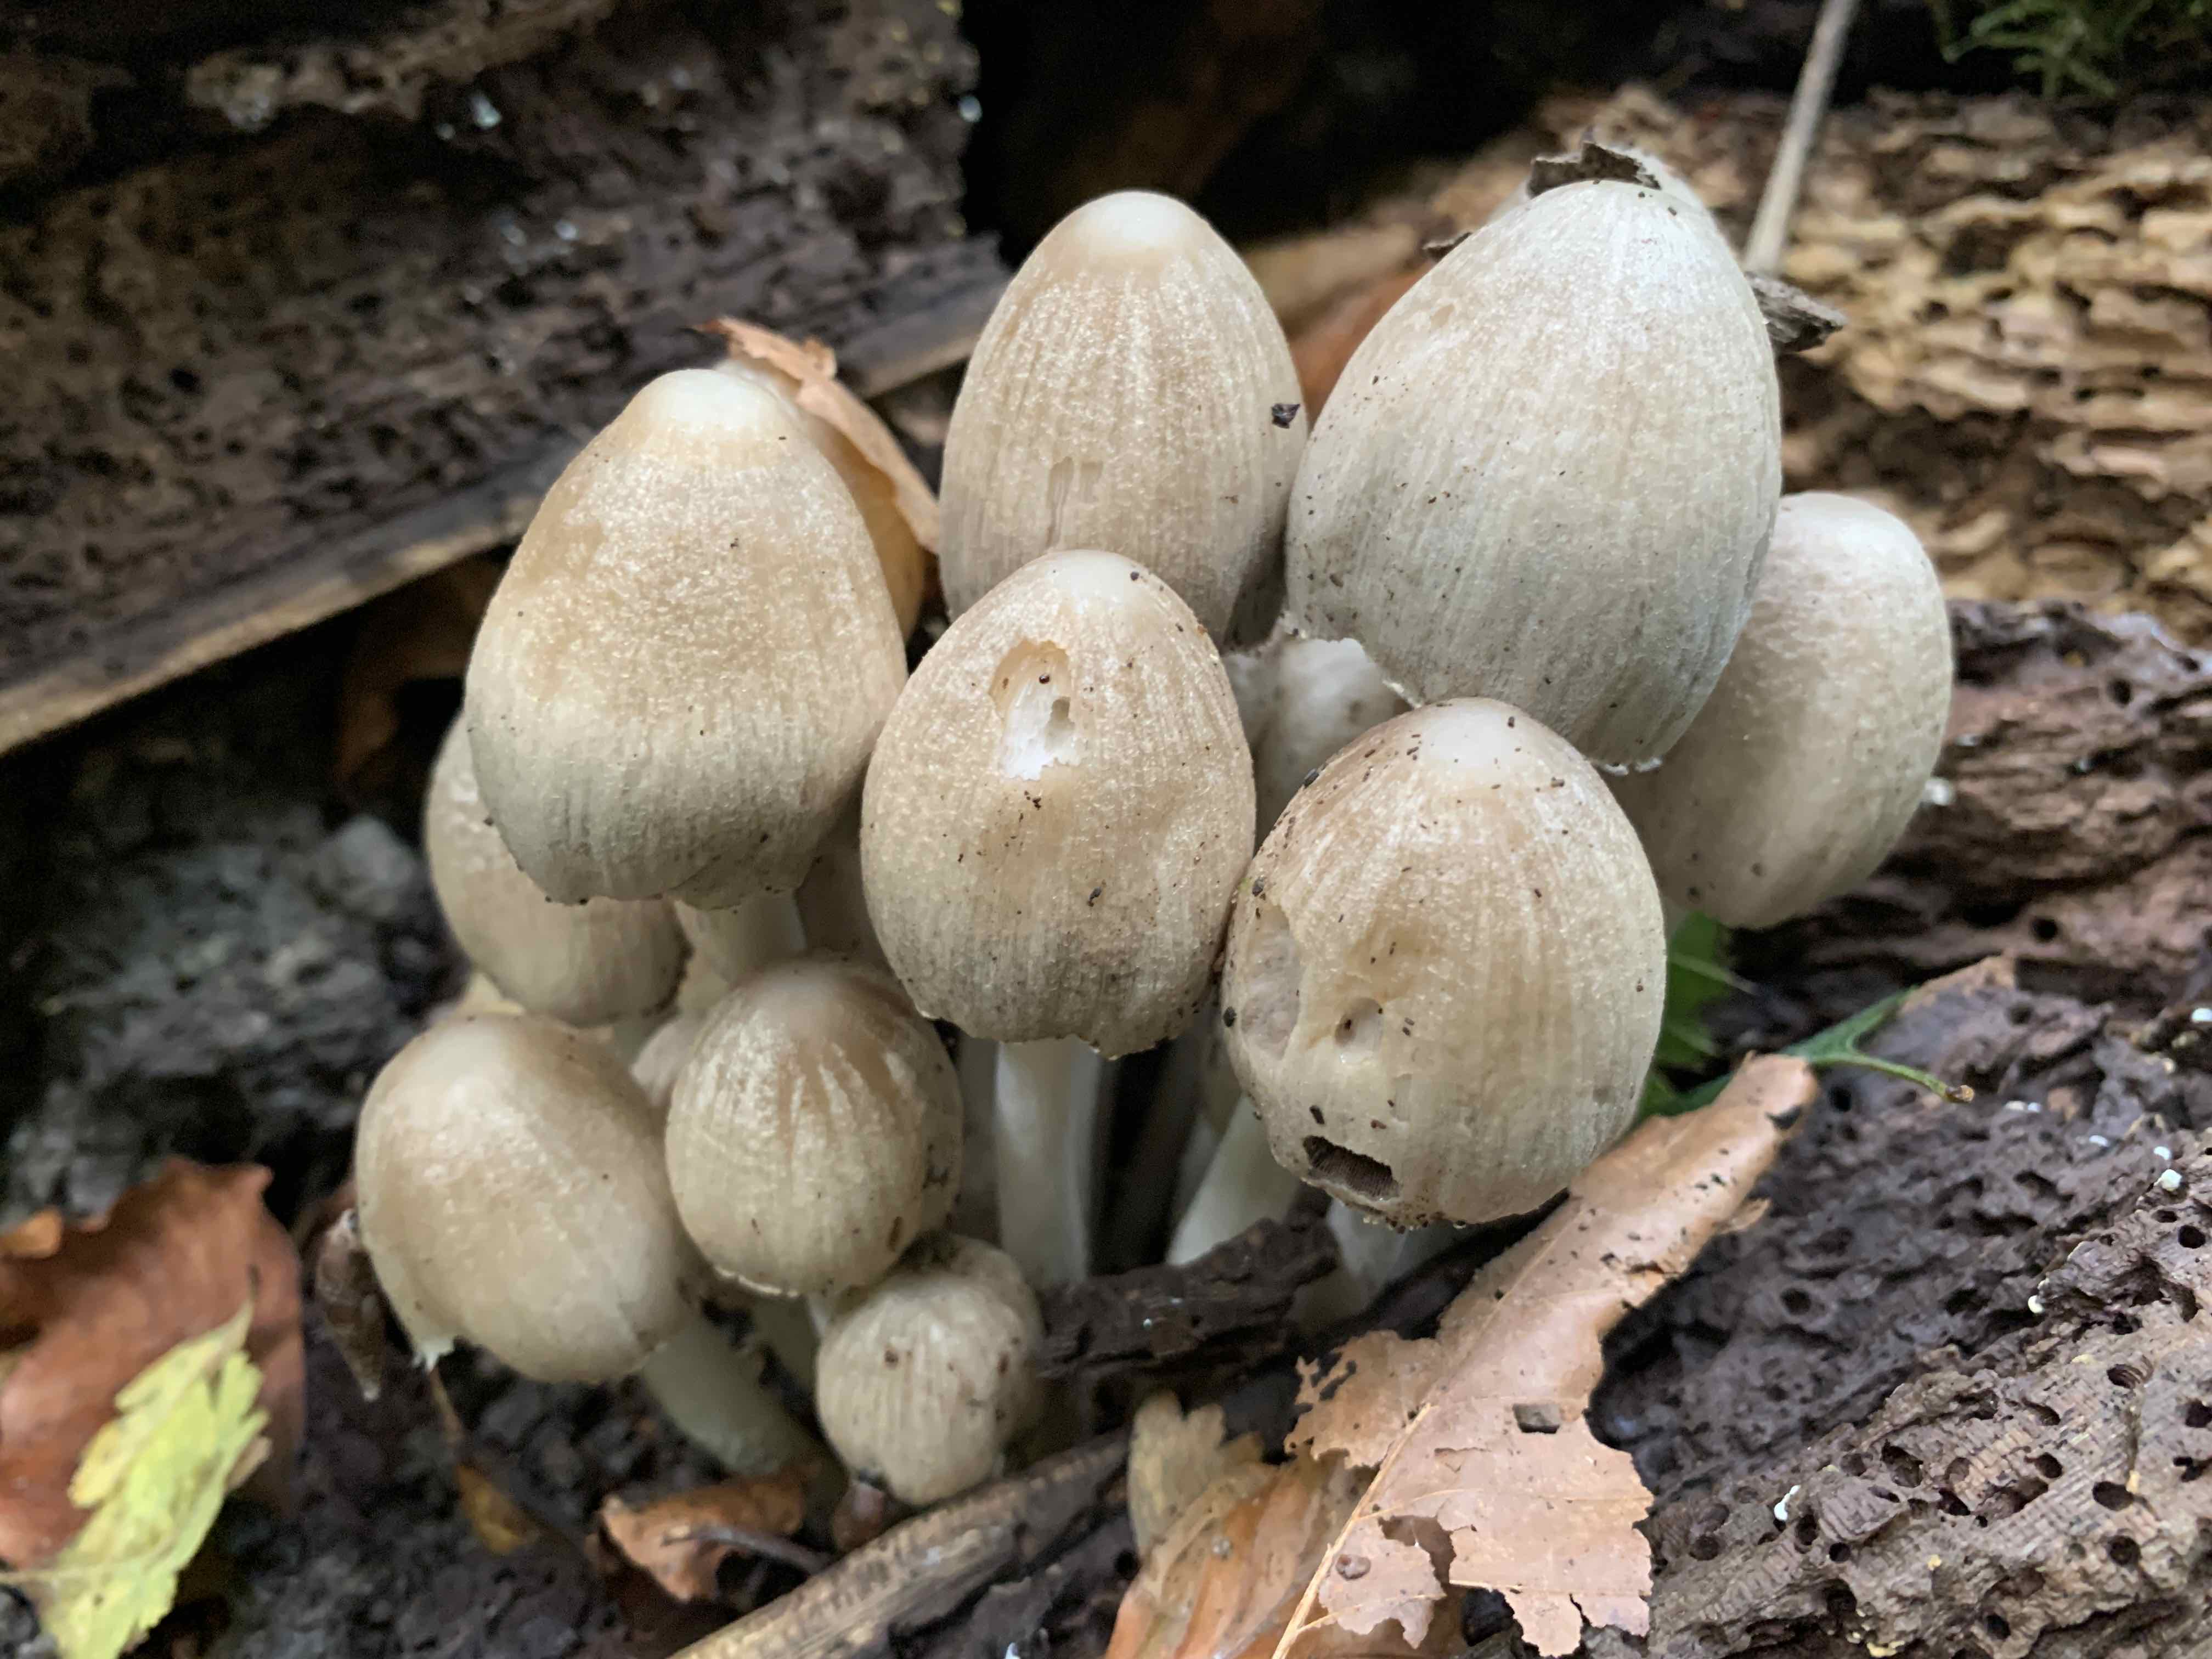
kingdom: Fungi
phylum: Basidiomycota
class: Agaricomycetes
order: Agaricales
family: Psathyrellaceae
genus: Coprinopsis
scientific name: Coprinopsis acuminata
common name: kegle-blækhat
